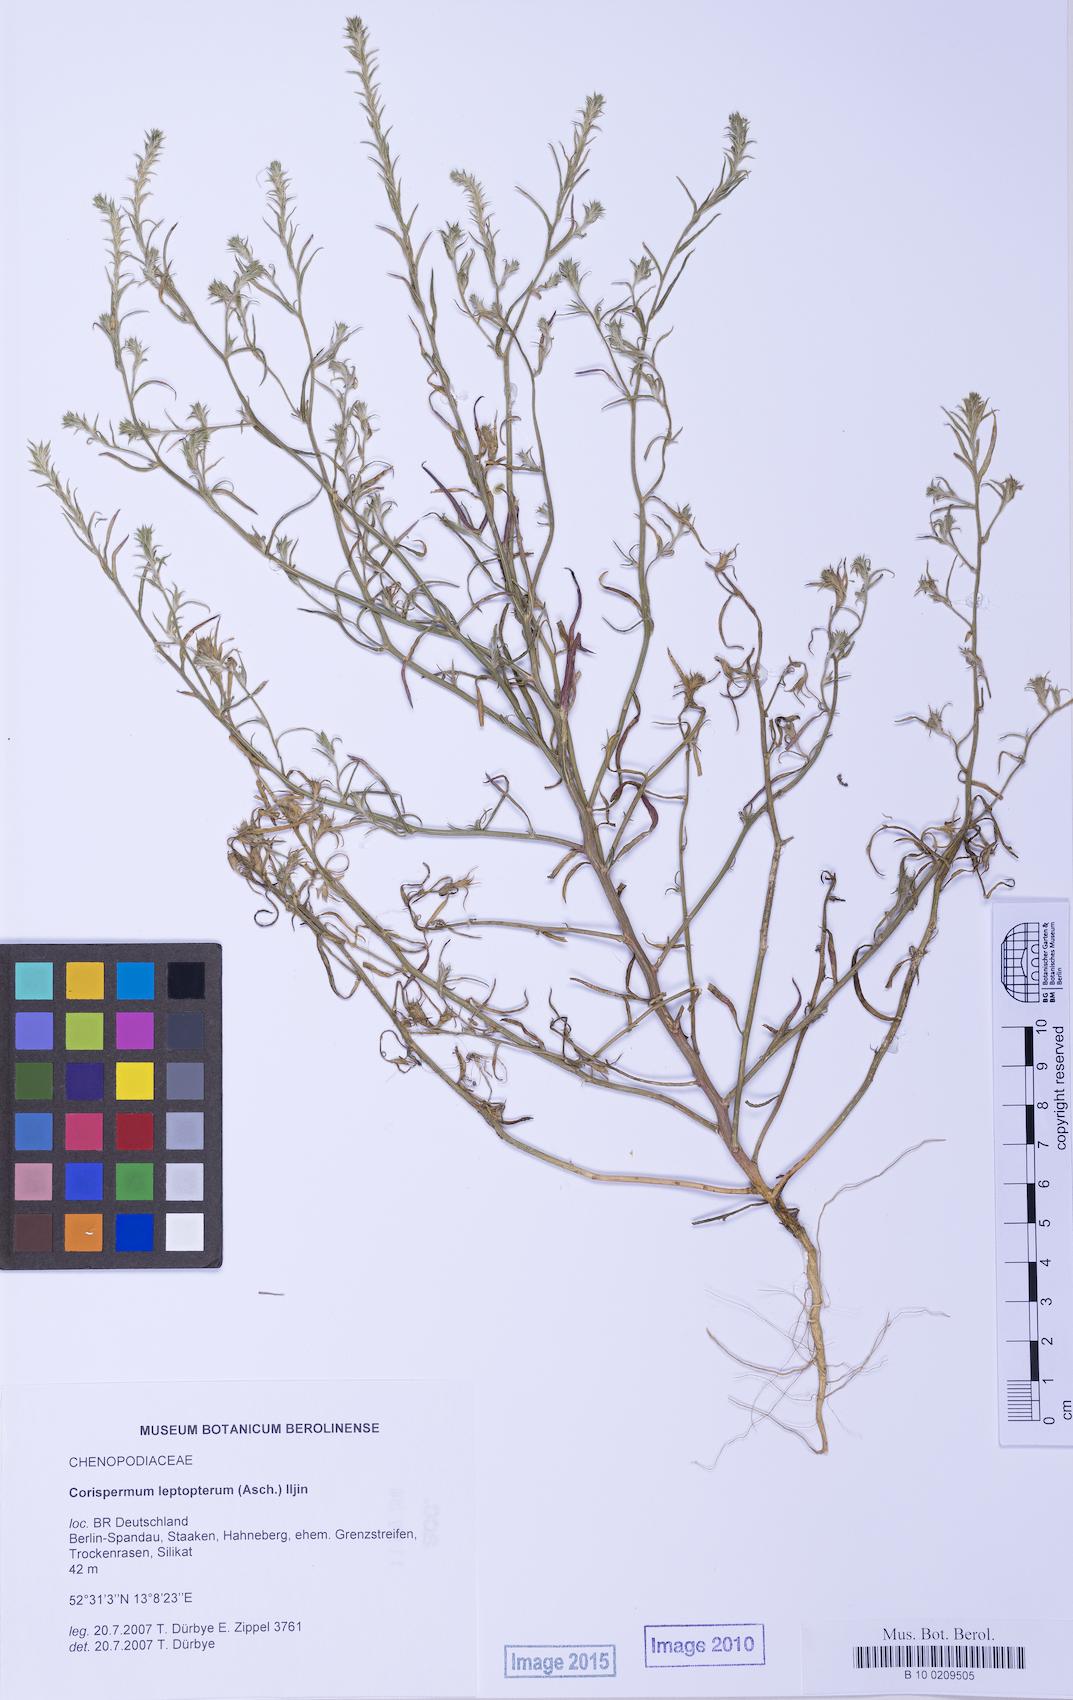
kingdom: Plantae
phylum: Tracheophyta
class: Magnoliopsida
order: Caryophyllales
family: Amaranthaceae
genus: Corispermum
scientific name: Corispermum pallasii
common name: Siberian bugseed
